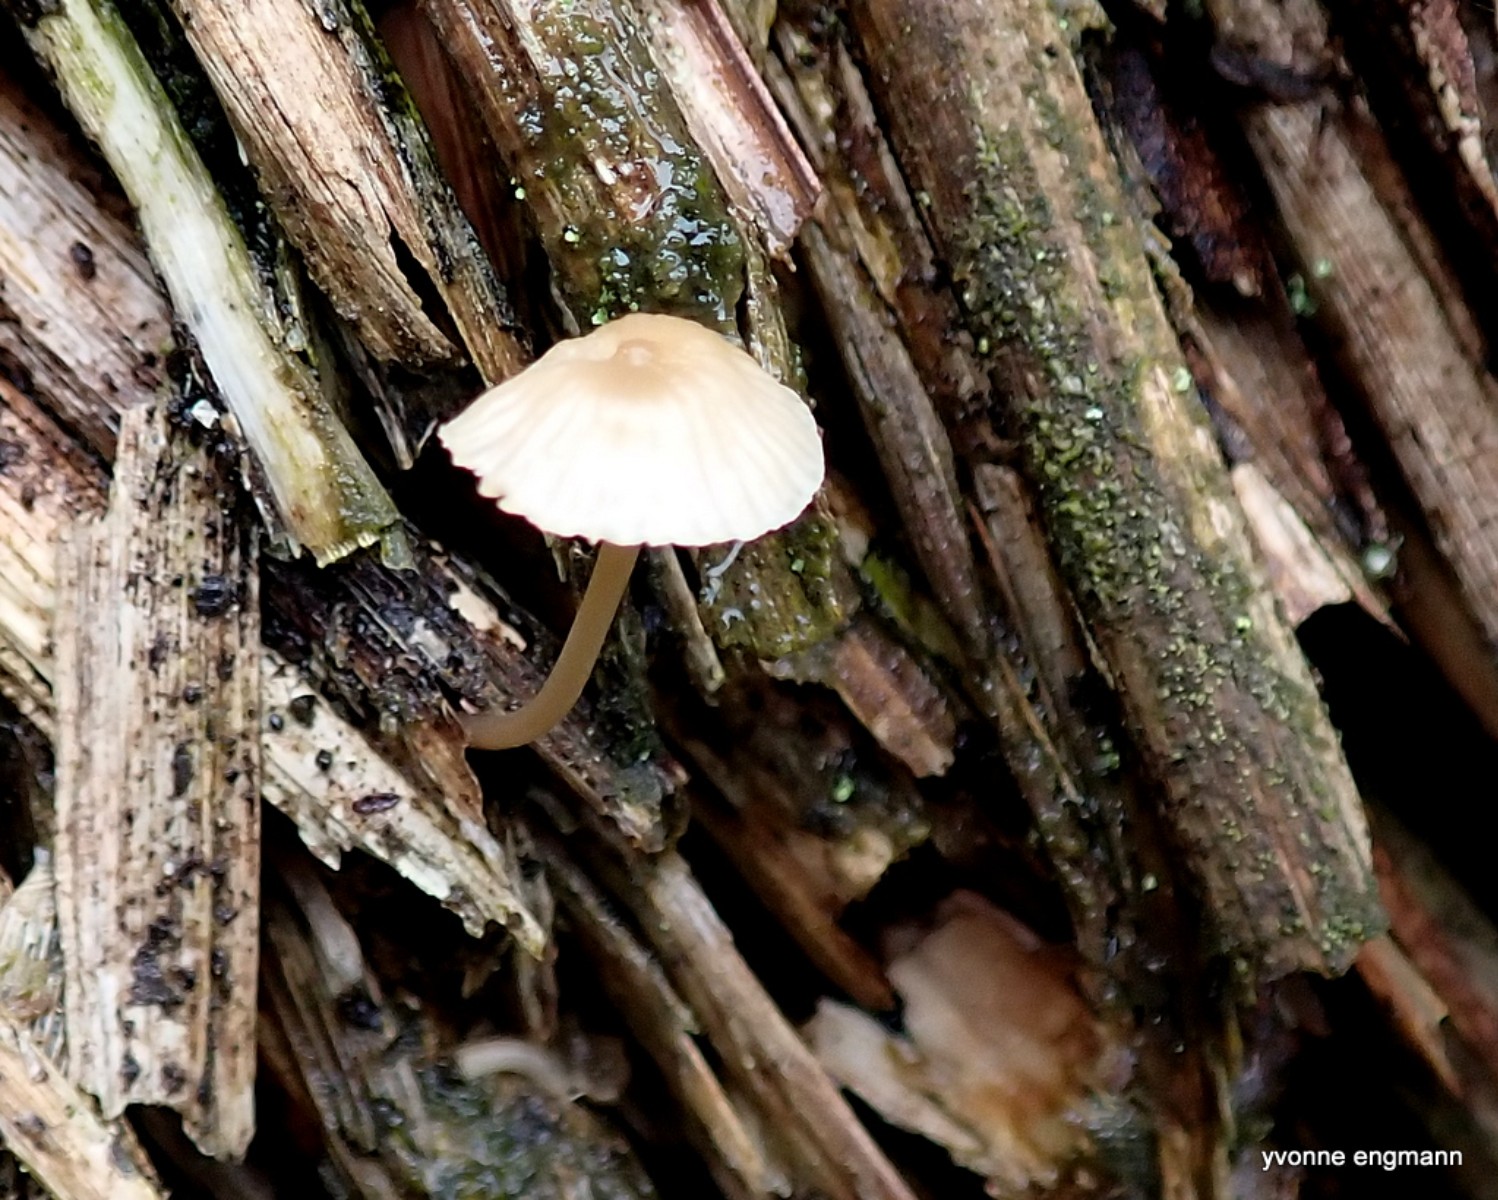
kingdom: Fungi
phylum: Basidiomycota
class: Agaricomycetes
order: Agaricales
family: Mycenaceae
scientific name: Mycenaceae
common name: huesvampfamilien
